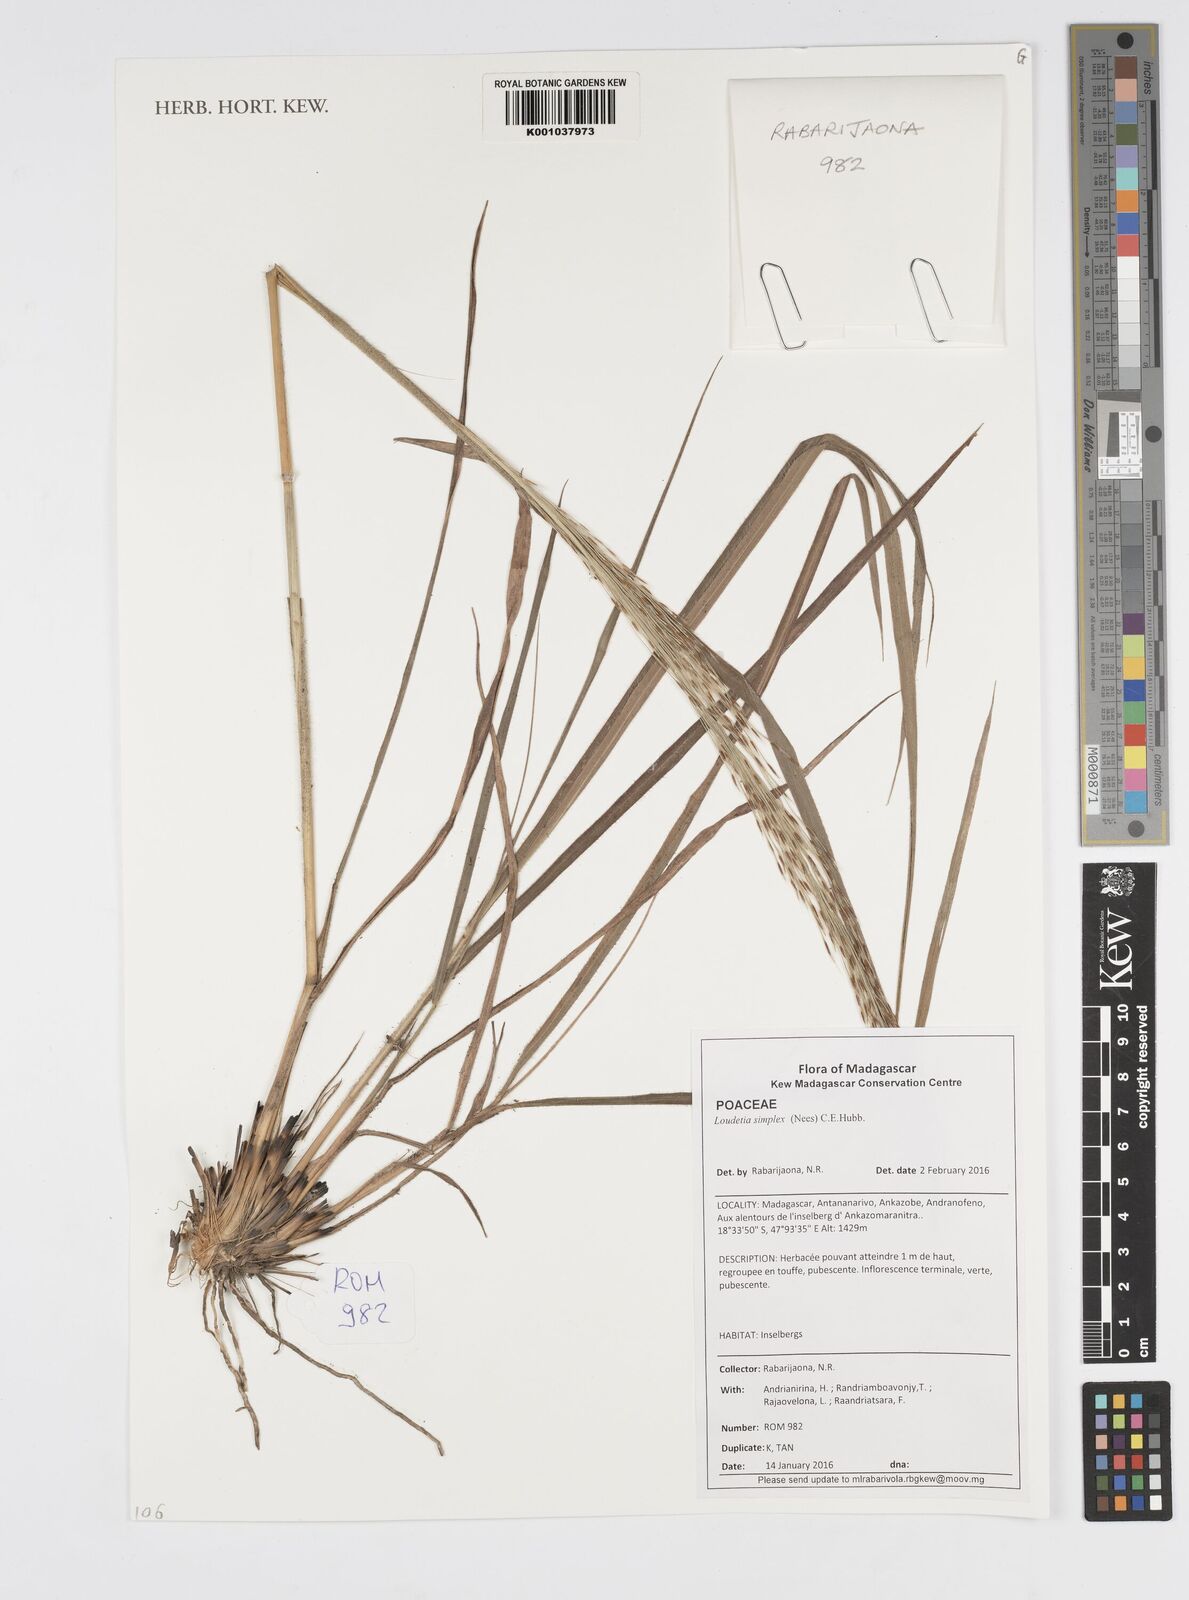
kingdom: Plantae
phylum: Tracheophyta
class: Liliopsida
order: Poales
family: Poaceae
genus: Loudetia
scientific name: Loudetia simplex
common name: Common russet grass
